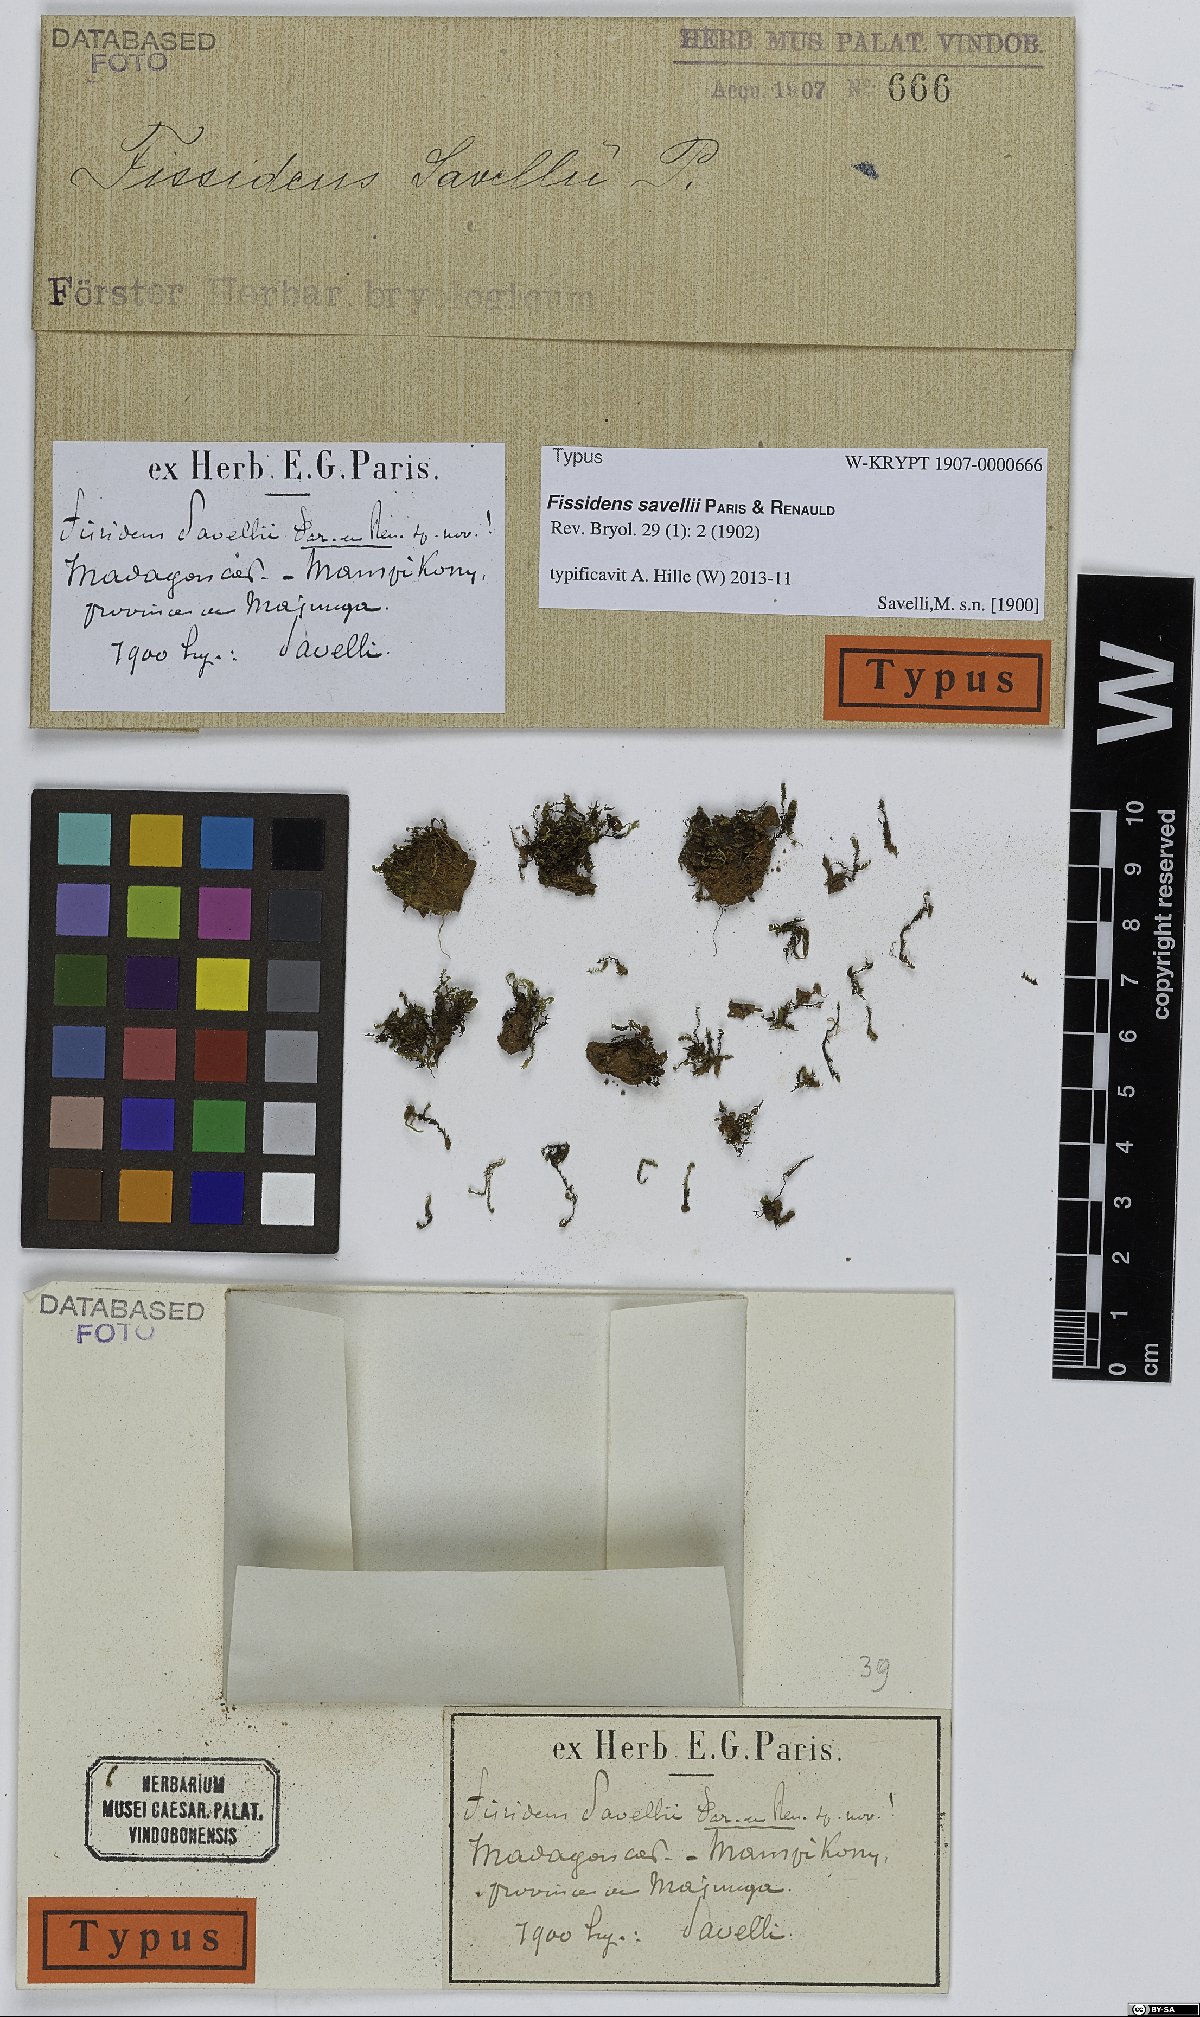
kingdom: Plantae
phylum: Bryophyta
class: Bryopsida
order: Dicranales
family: Fissidentaceae
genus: Fissidens
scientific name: Fissidens crispulus
